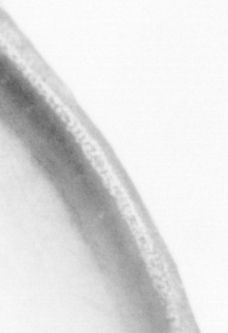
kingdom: Animalia
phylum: Chordata
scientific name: Chordata
